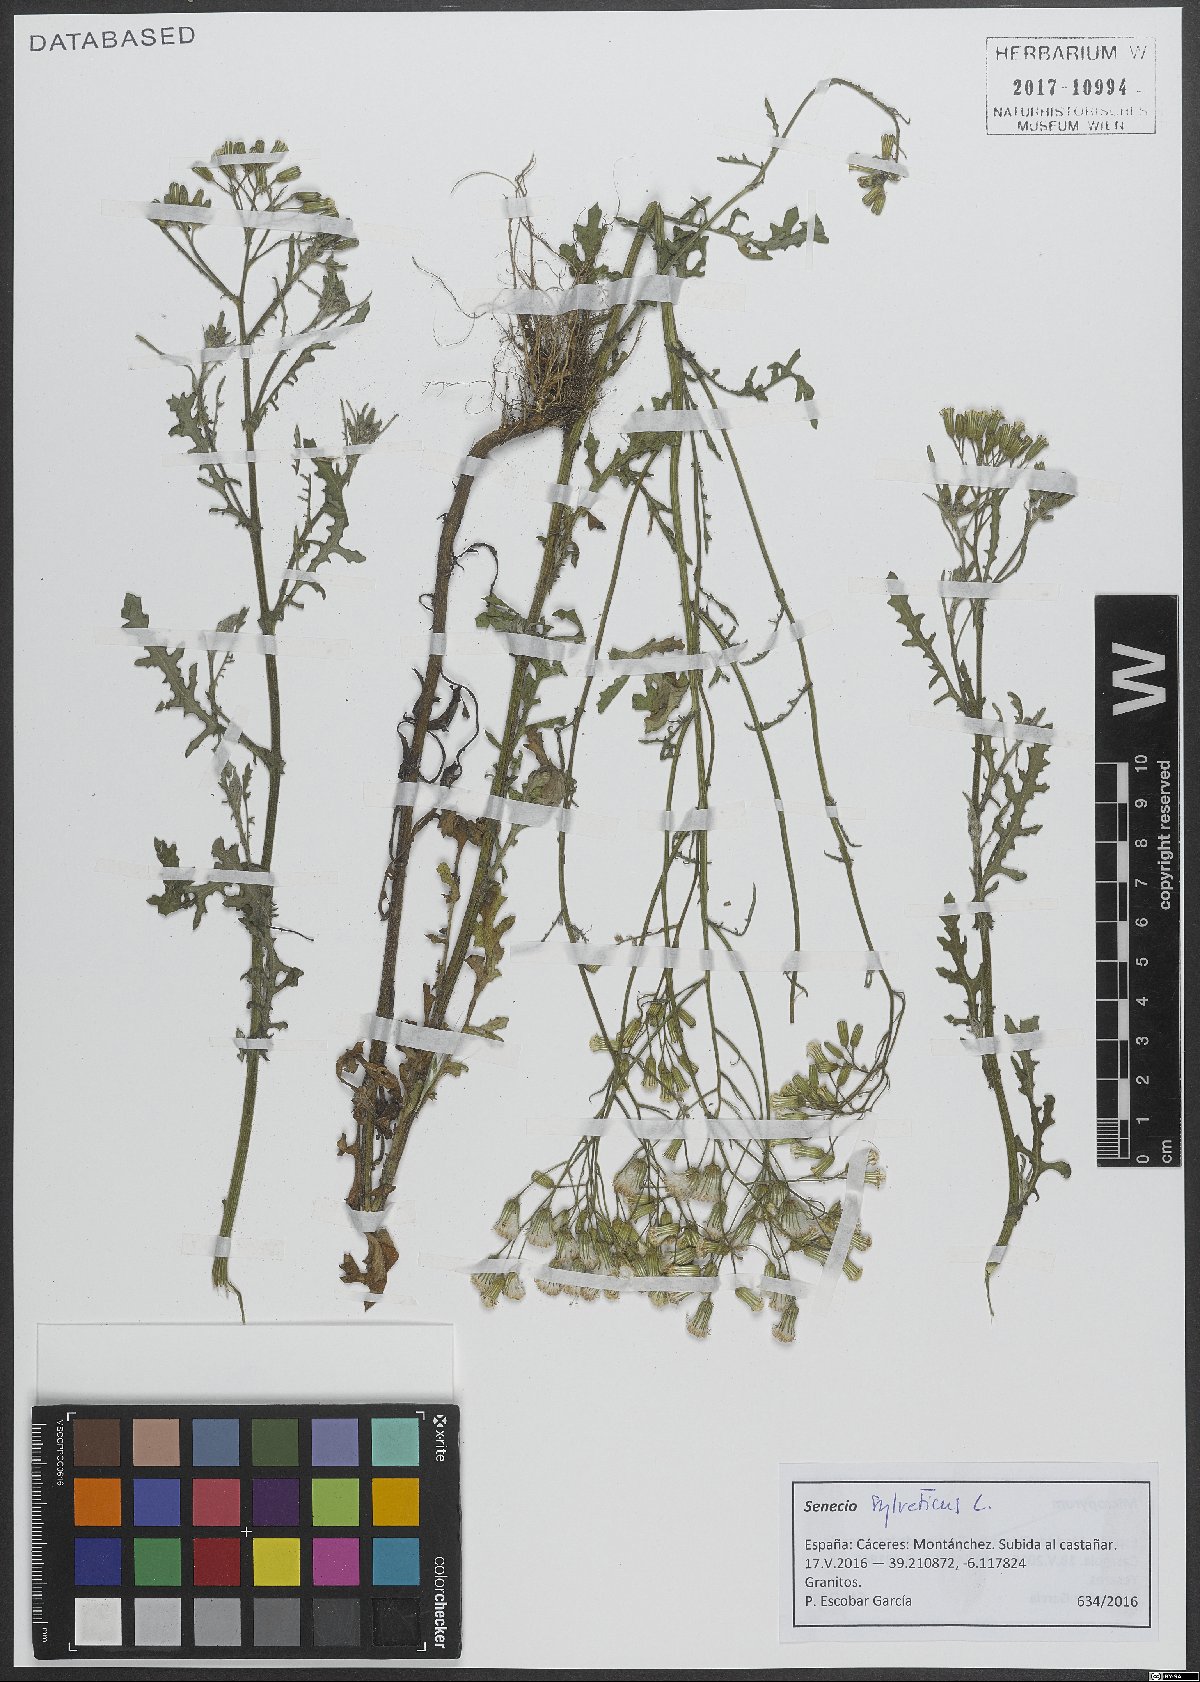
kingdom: Plantae
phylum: Tracheophyta
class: Magnoliopsida
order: Asterales
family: Asteraceae
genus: Senecio
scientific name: Senecio sylvaticus
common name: Woodland ragwort
